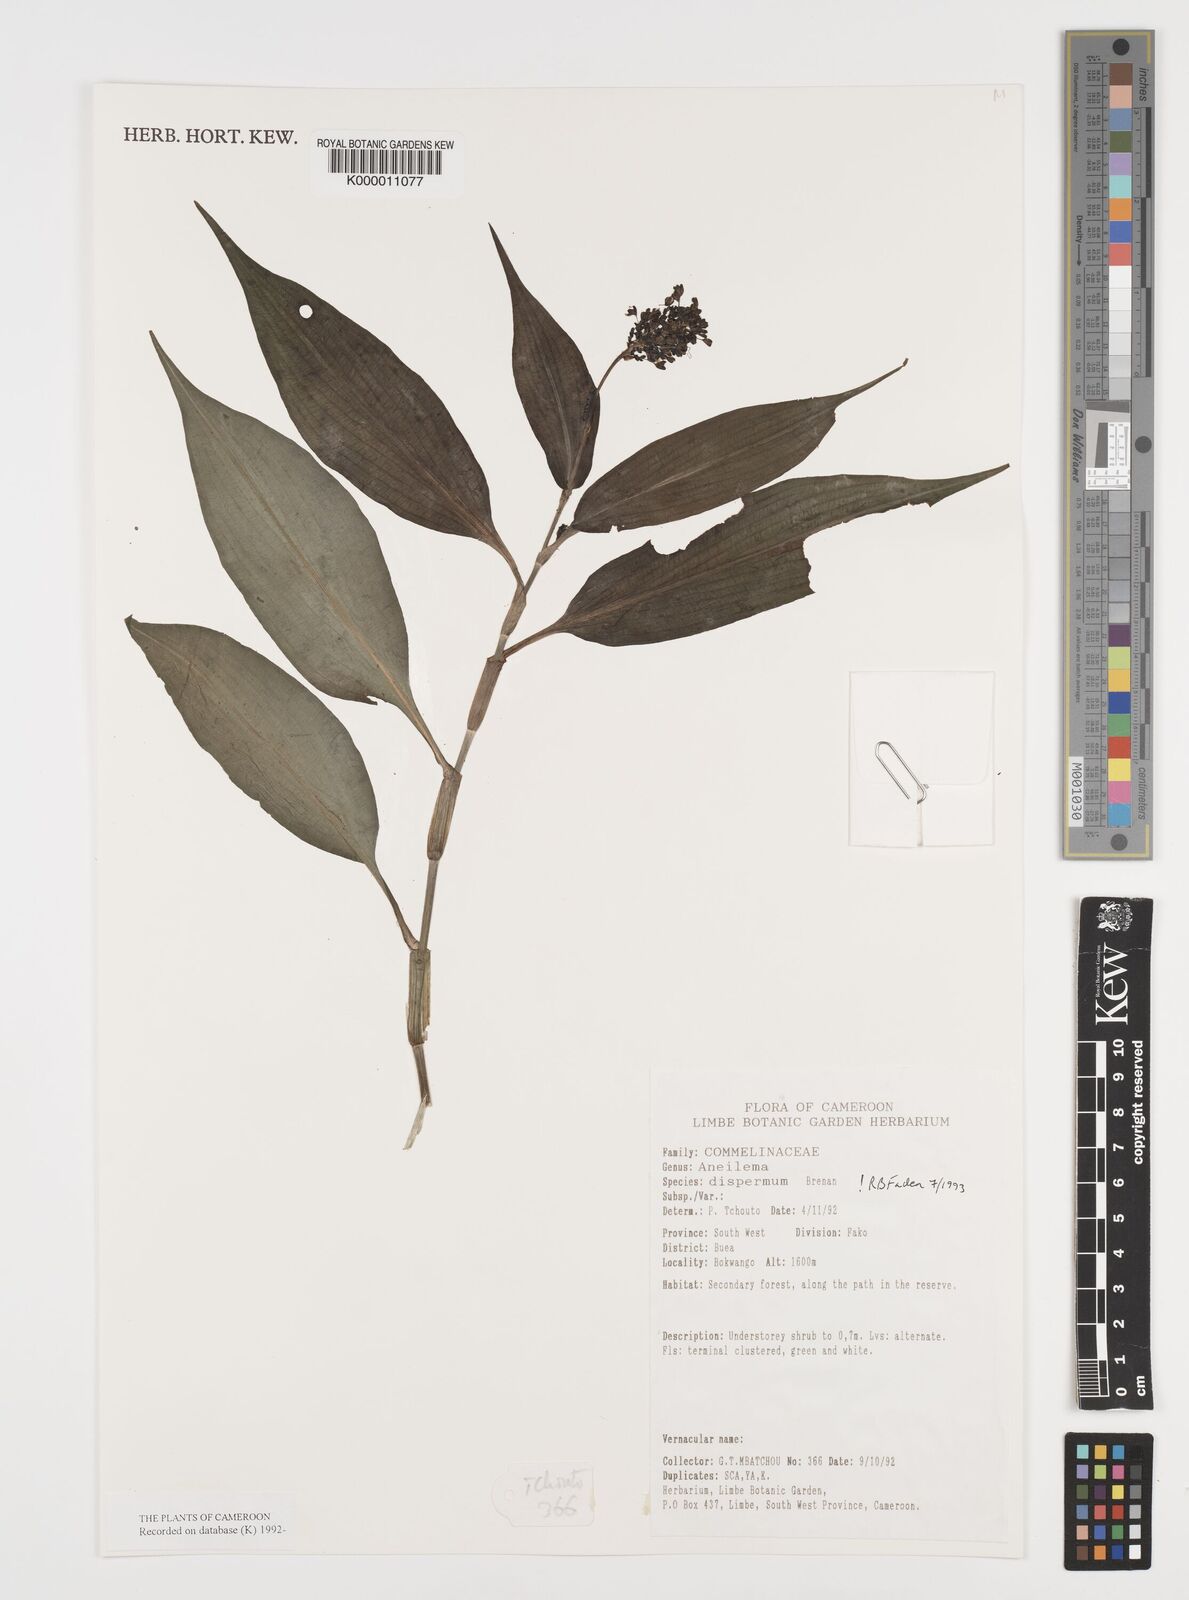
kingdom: Plantae
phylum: Tracheophyta
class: Liliopsida
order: Commelinales
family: Commelinaceae
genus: Aneilema
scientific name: Aneilema dispermum
